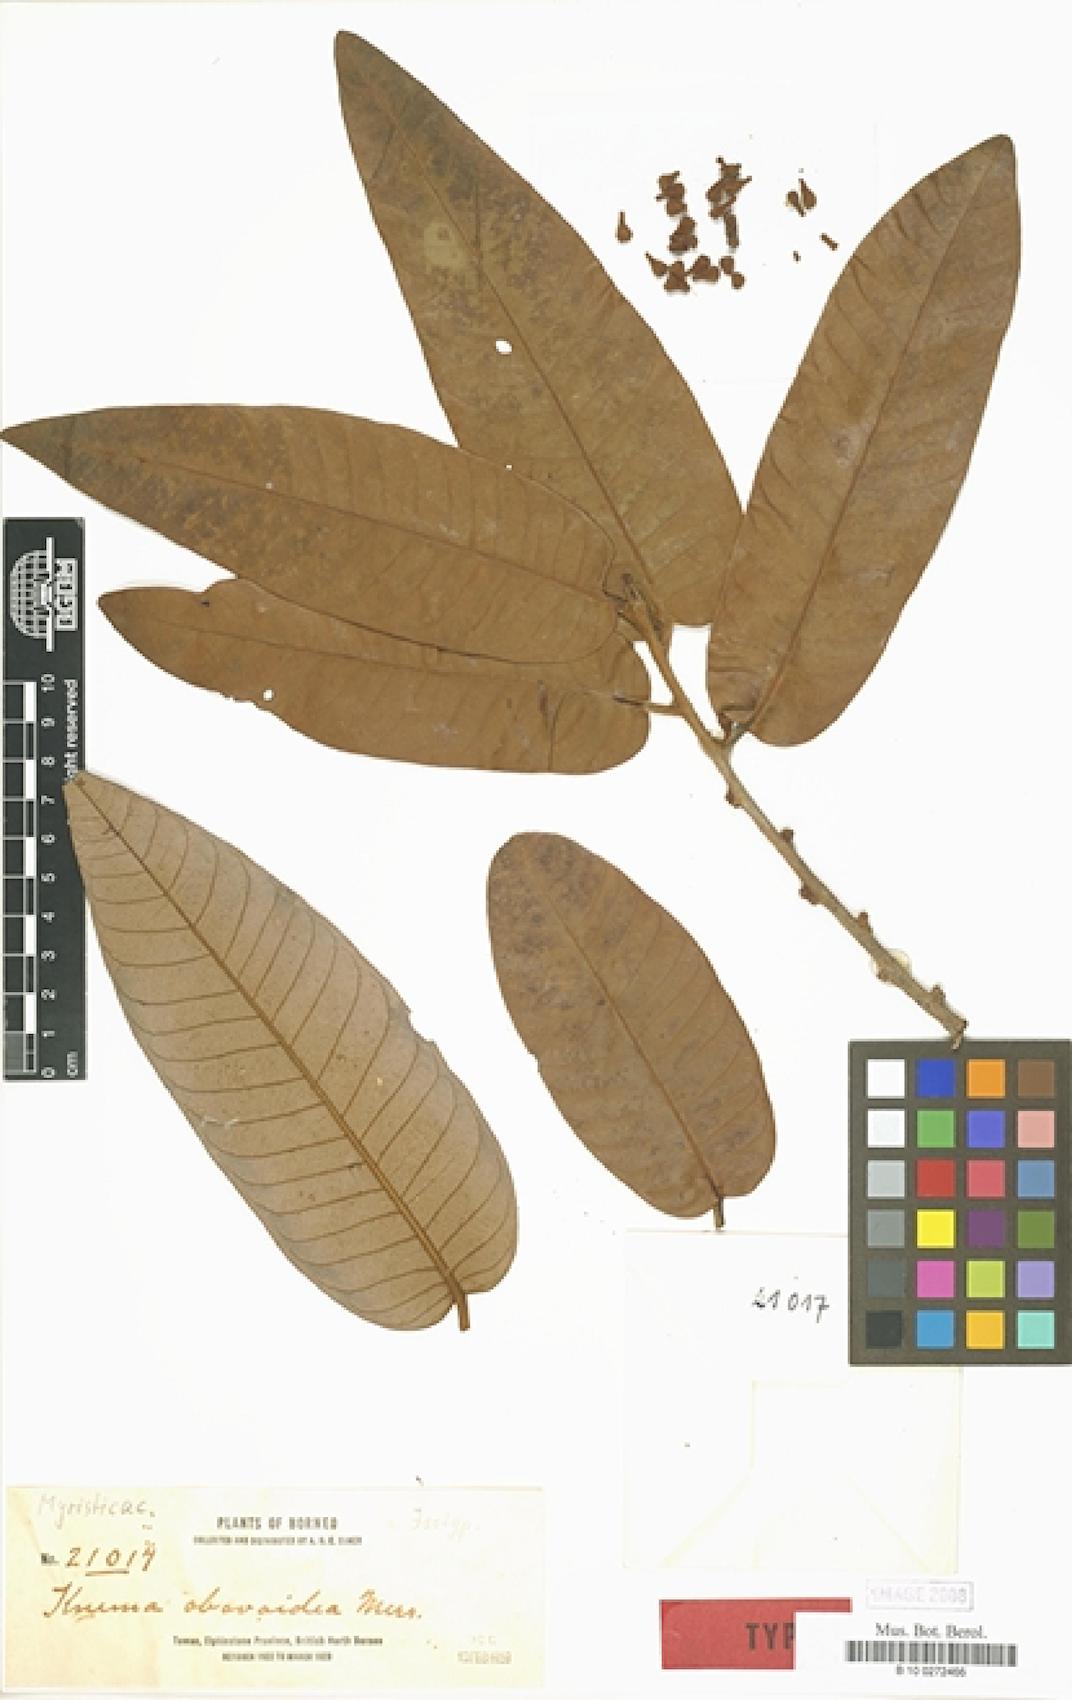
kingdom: Plantae
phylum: Tracheophyta
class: Magnoliopsida
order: Magnoliales
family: Myristicaceae
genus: Knema
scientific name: Knema obovoidea
